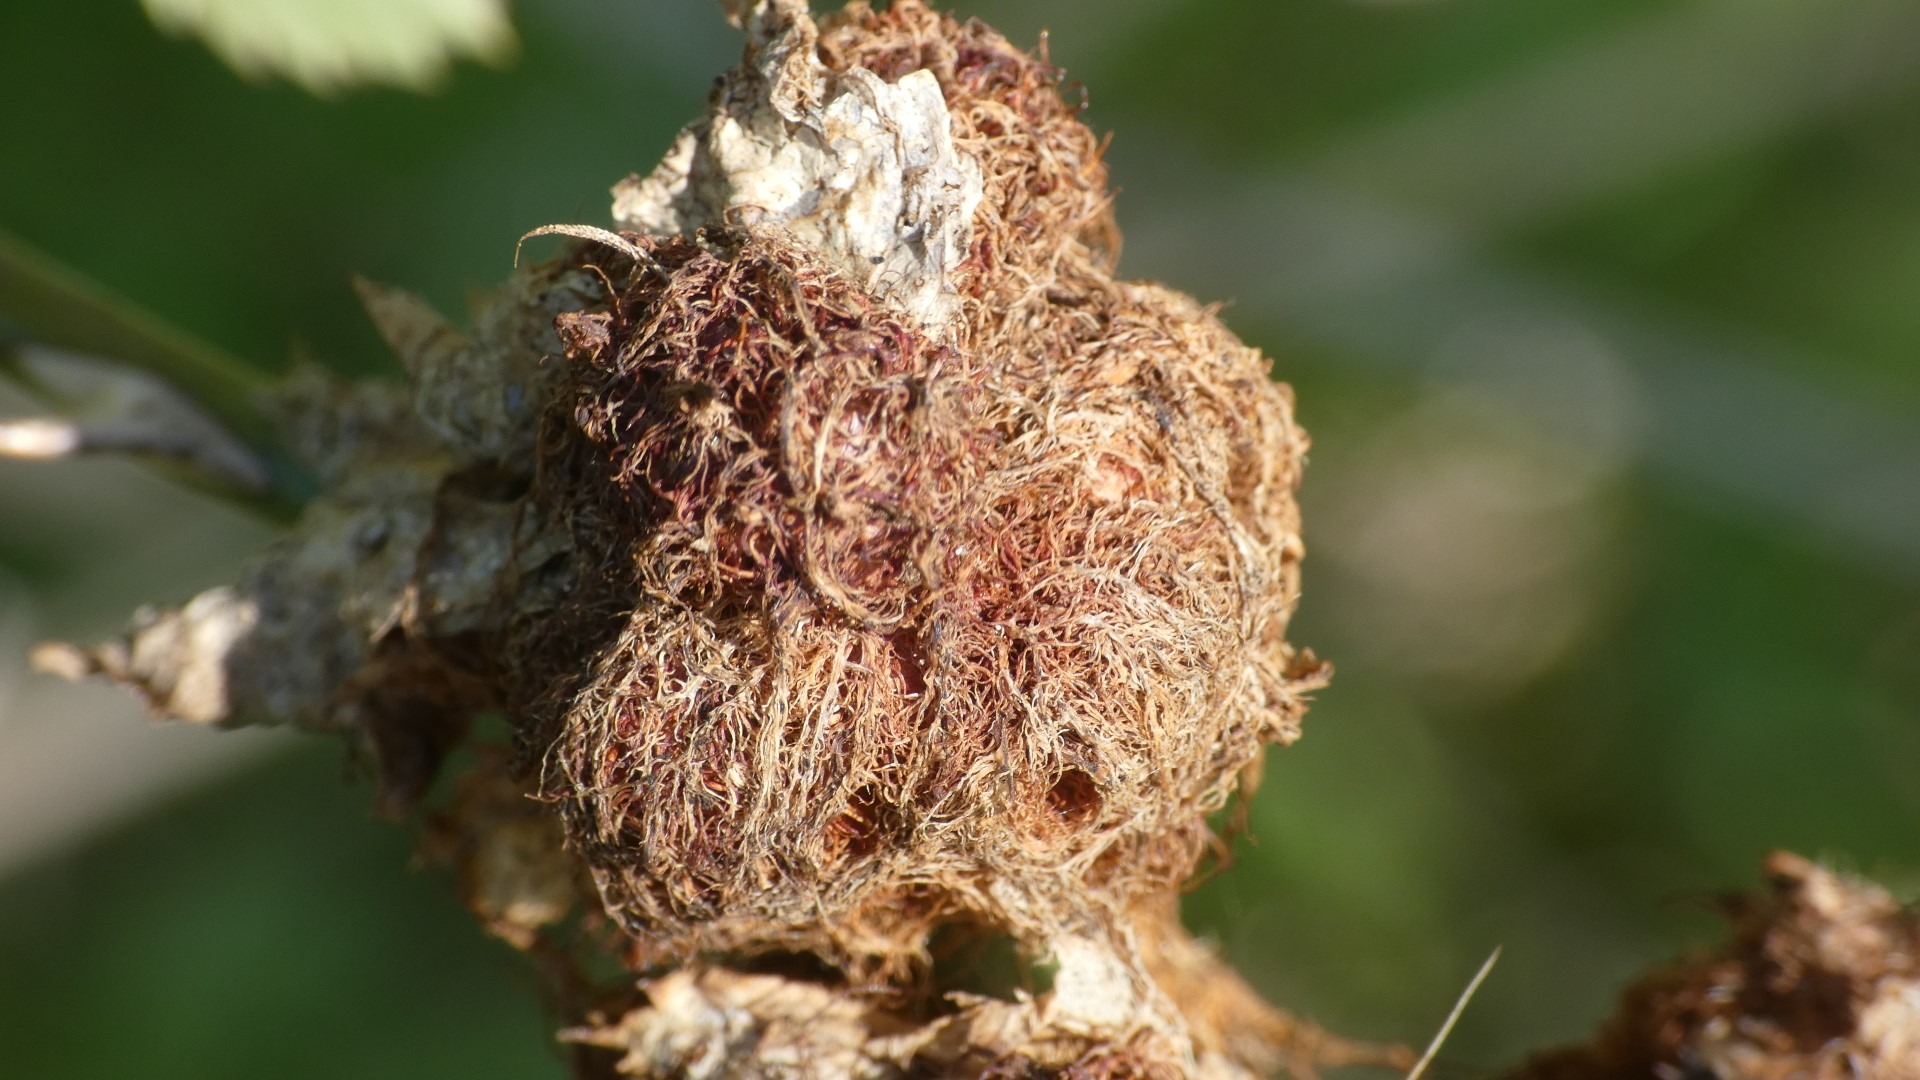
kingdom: Animalia
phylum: Arthropoda
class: Insecta
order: Hymenoptera
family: Cynipidae
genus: Diplolepis
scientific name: Diplolepis rosae
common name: Bedeguargalhveps
